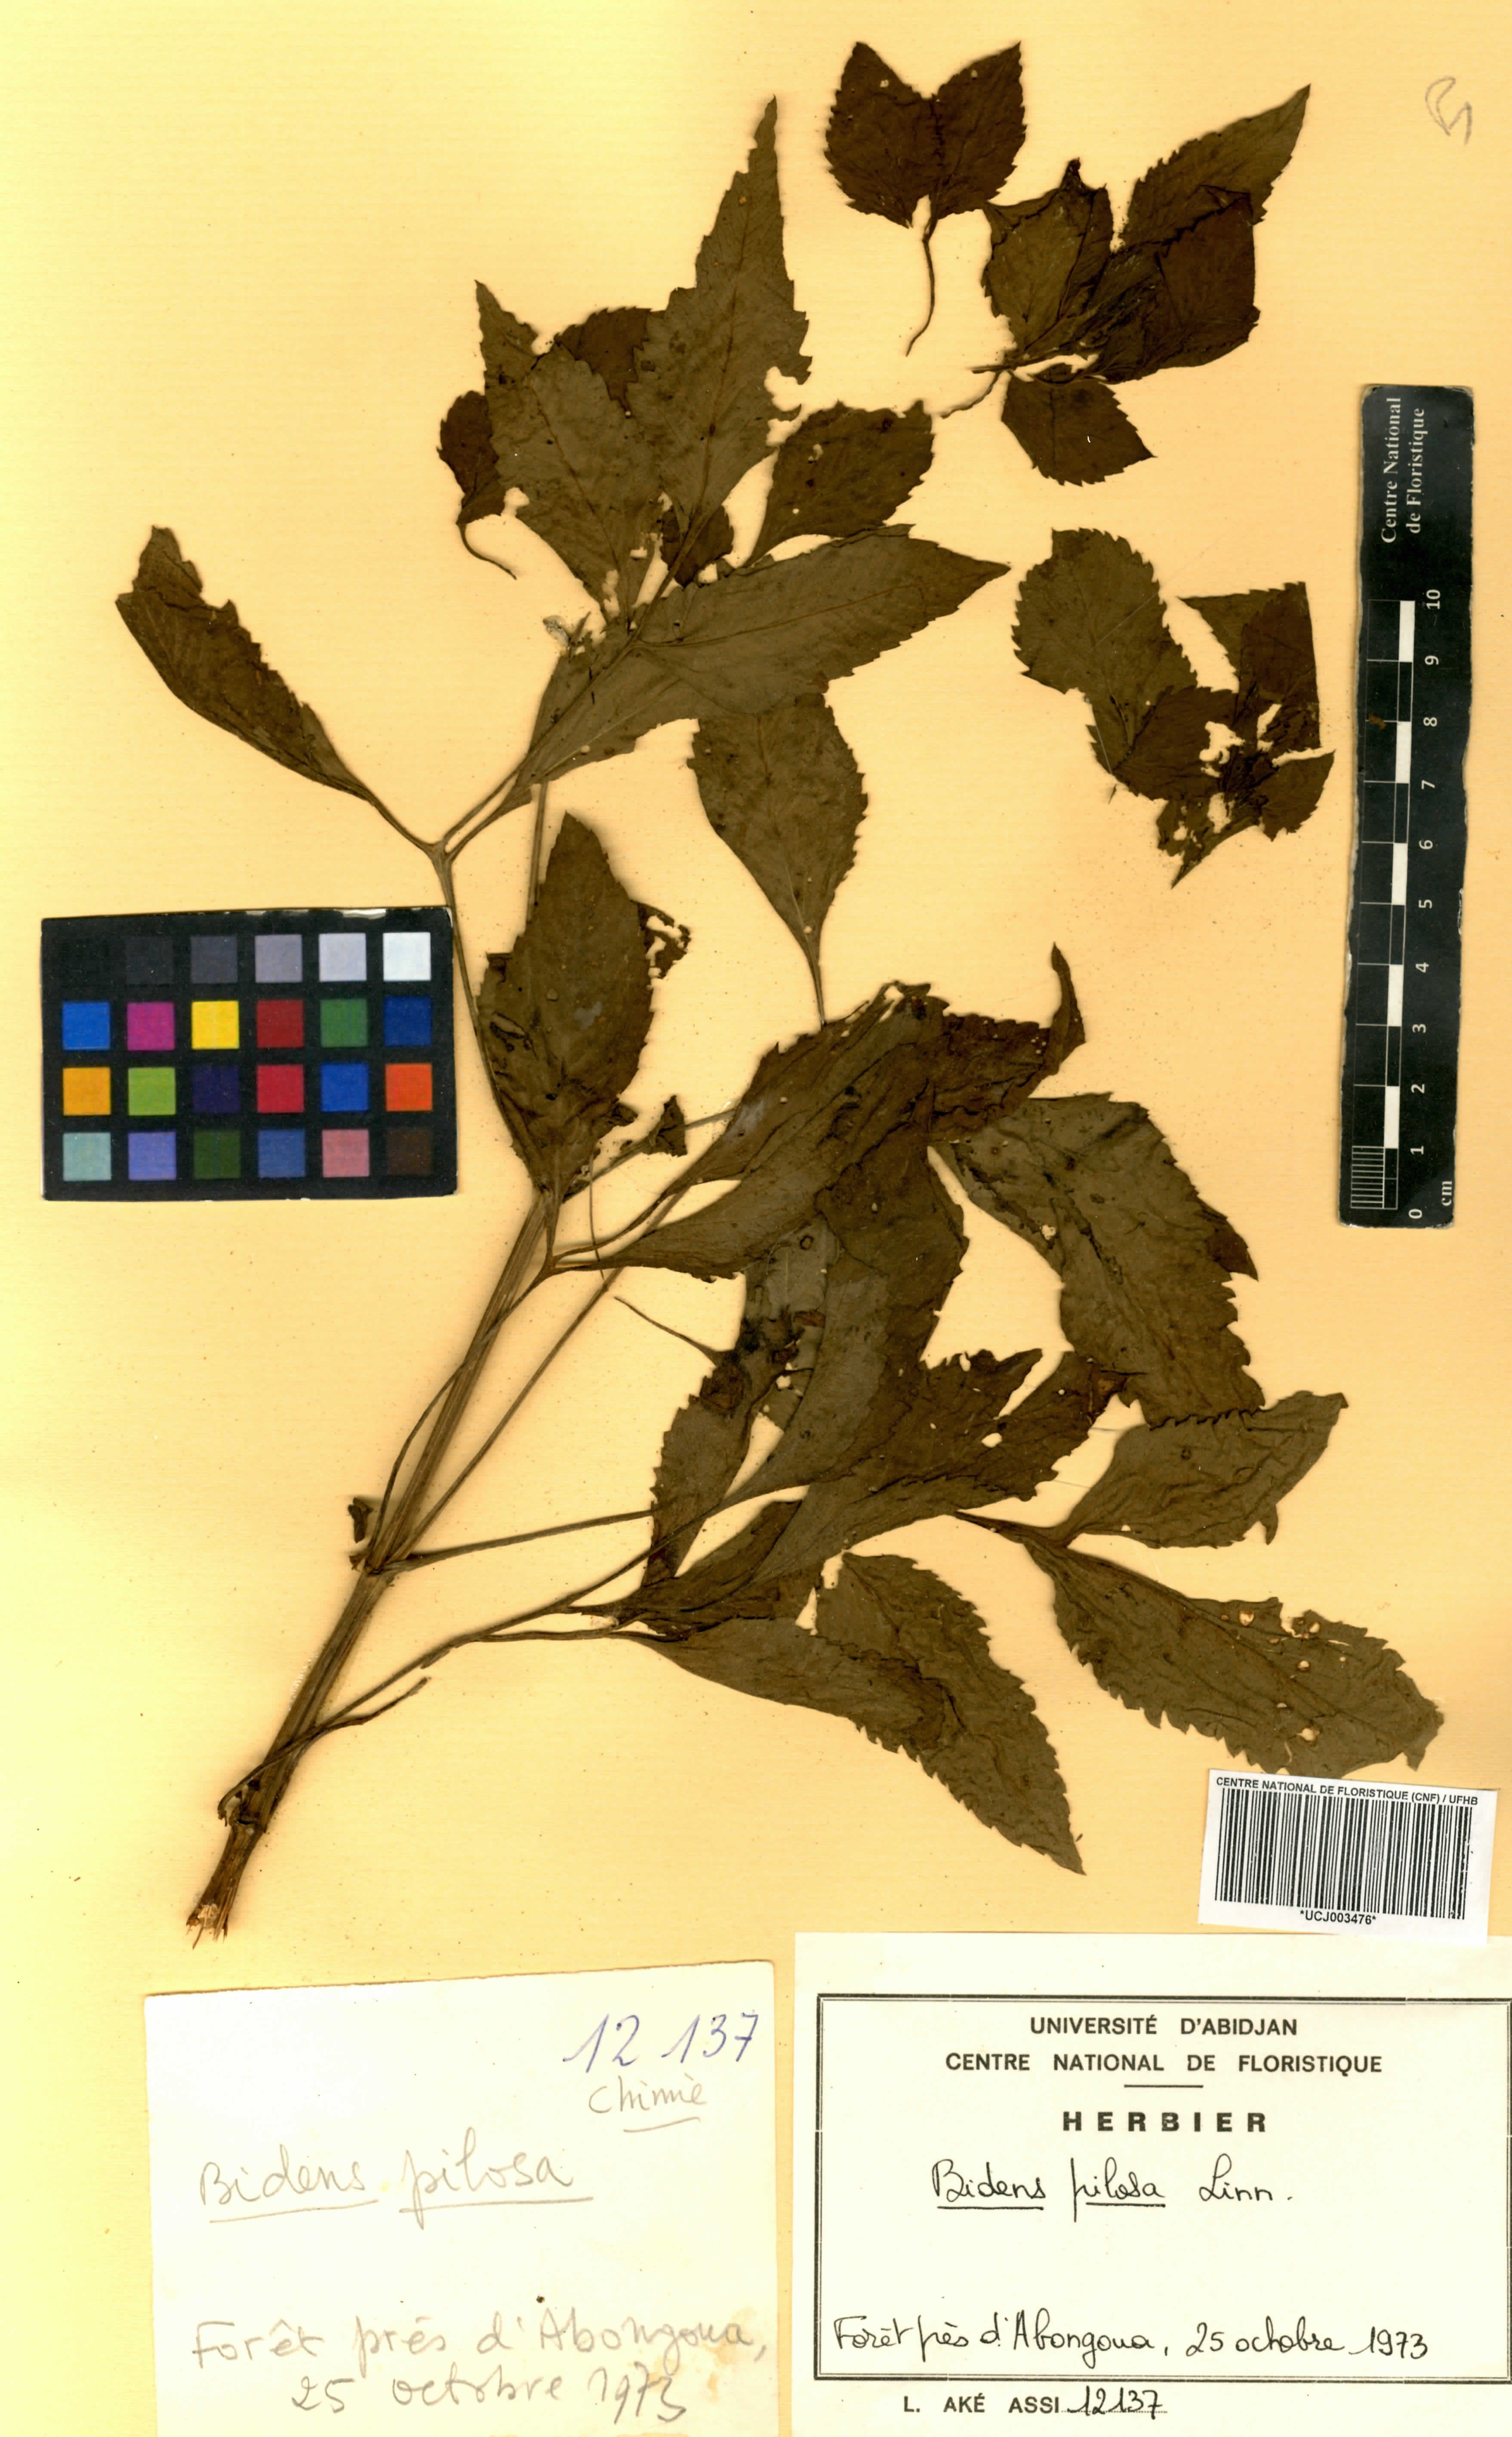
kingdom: Plantae
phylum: Tracheophyta
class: Magnoliopsida
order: Asterales
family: Asteraceae
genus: Bidens
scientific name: Bidens pilosa
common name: Black-jack
